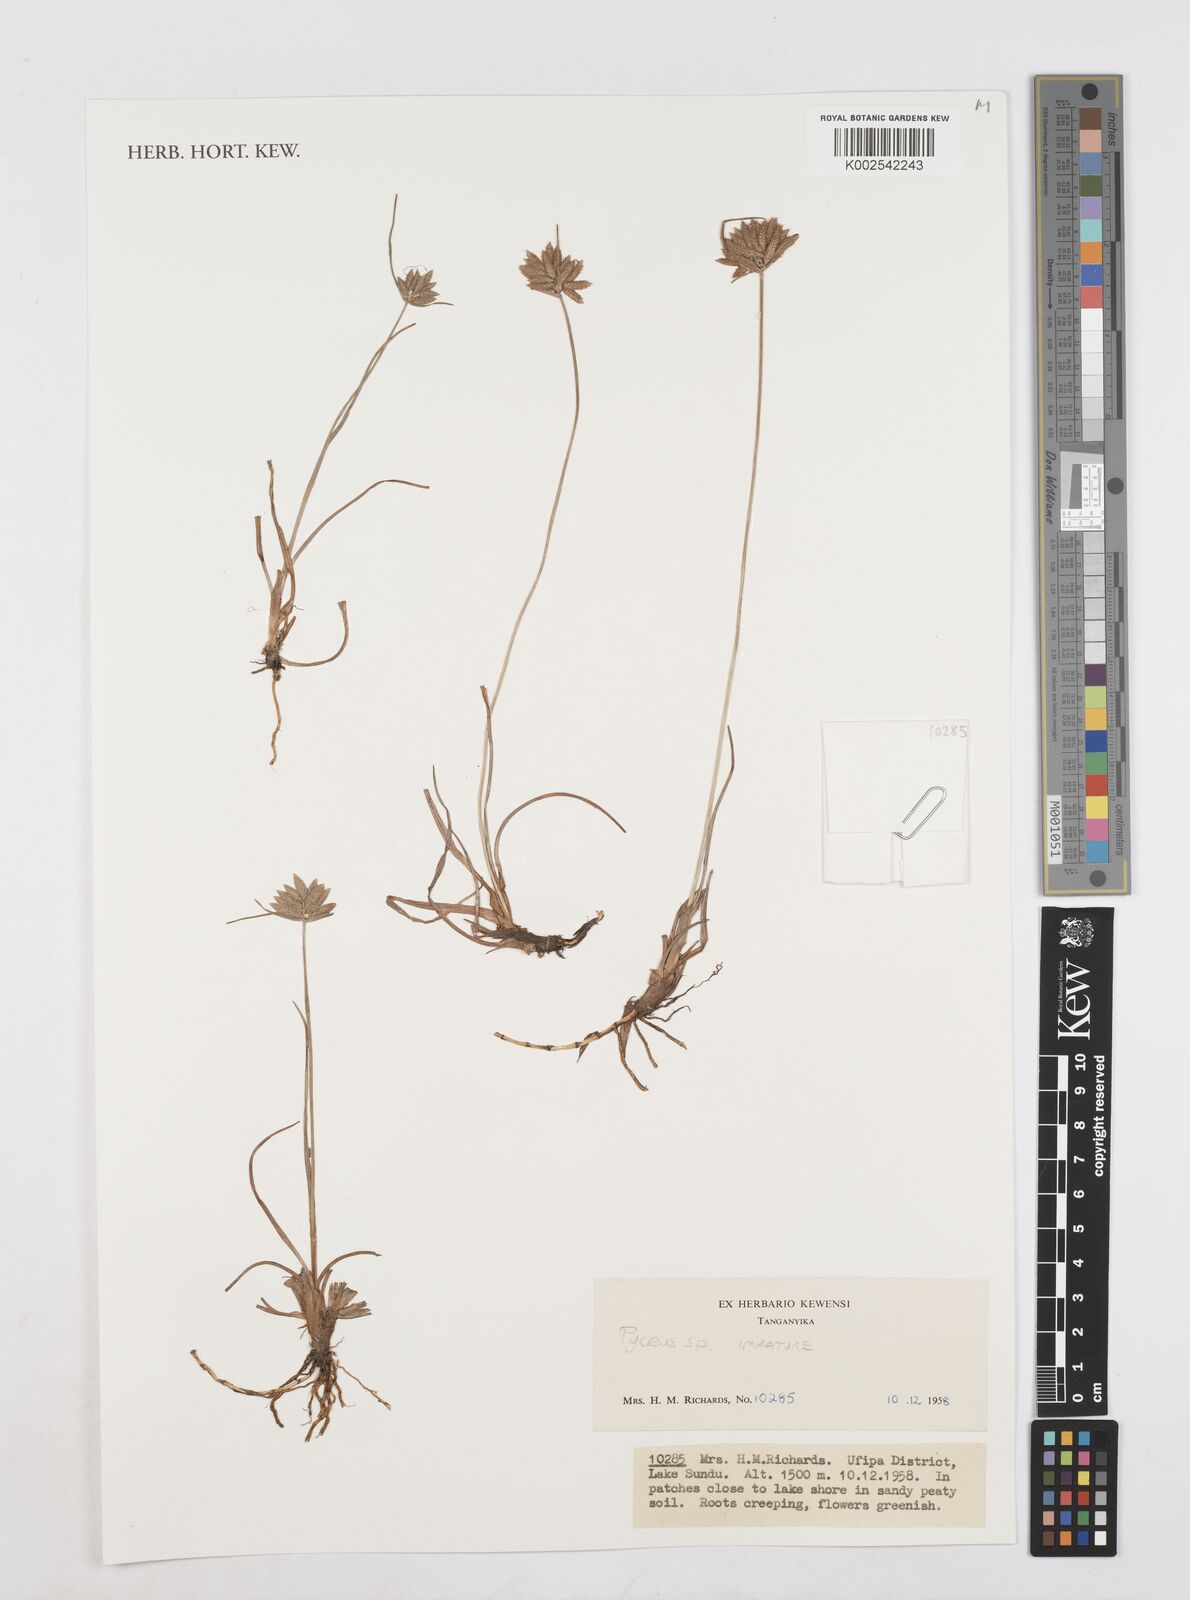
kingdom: Plantae
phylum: Tracheophyta
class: Liliopsida
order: Poales
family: Cyperaceae
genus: Cyperus
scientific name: Cyperus
